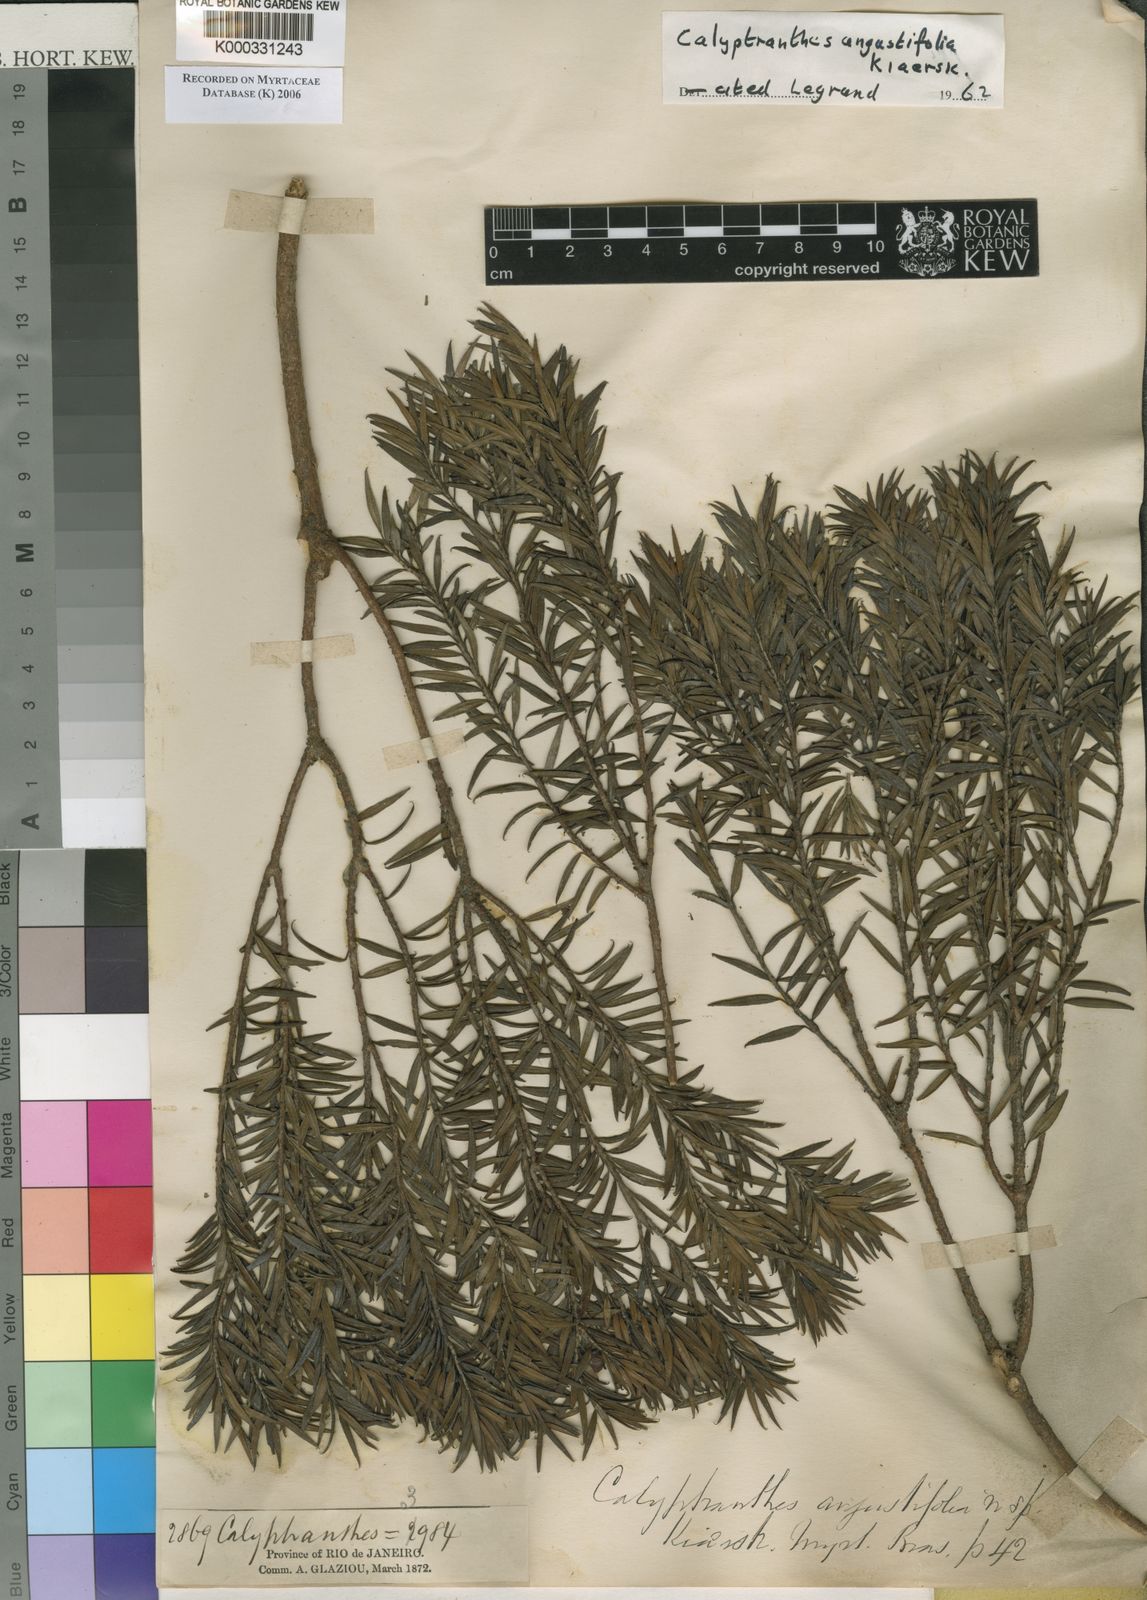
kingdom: Plantae
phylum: Tracheophyta
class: Magnoliopsida
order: Myrtales
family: Myrtaceae
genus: Myrcia
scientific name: Myrcia uncinata
